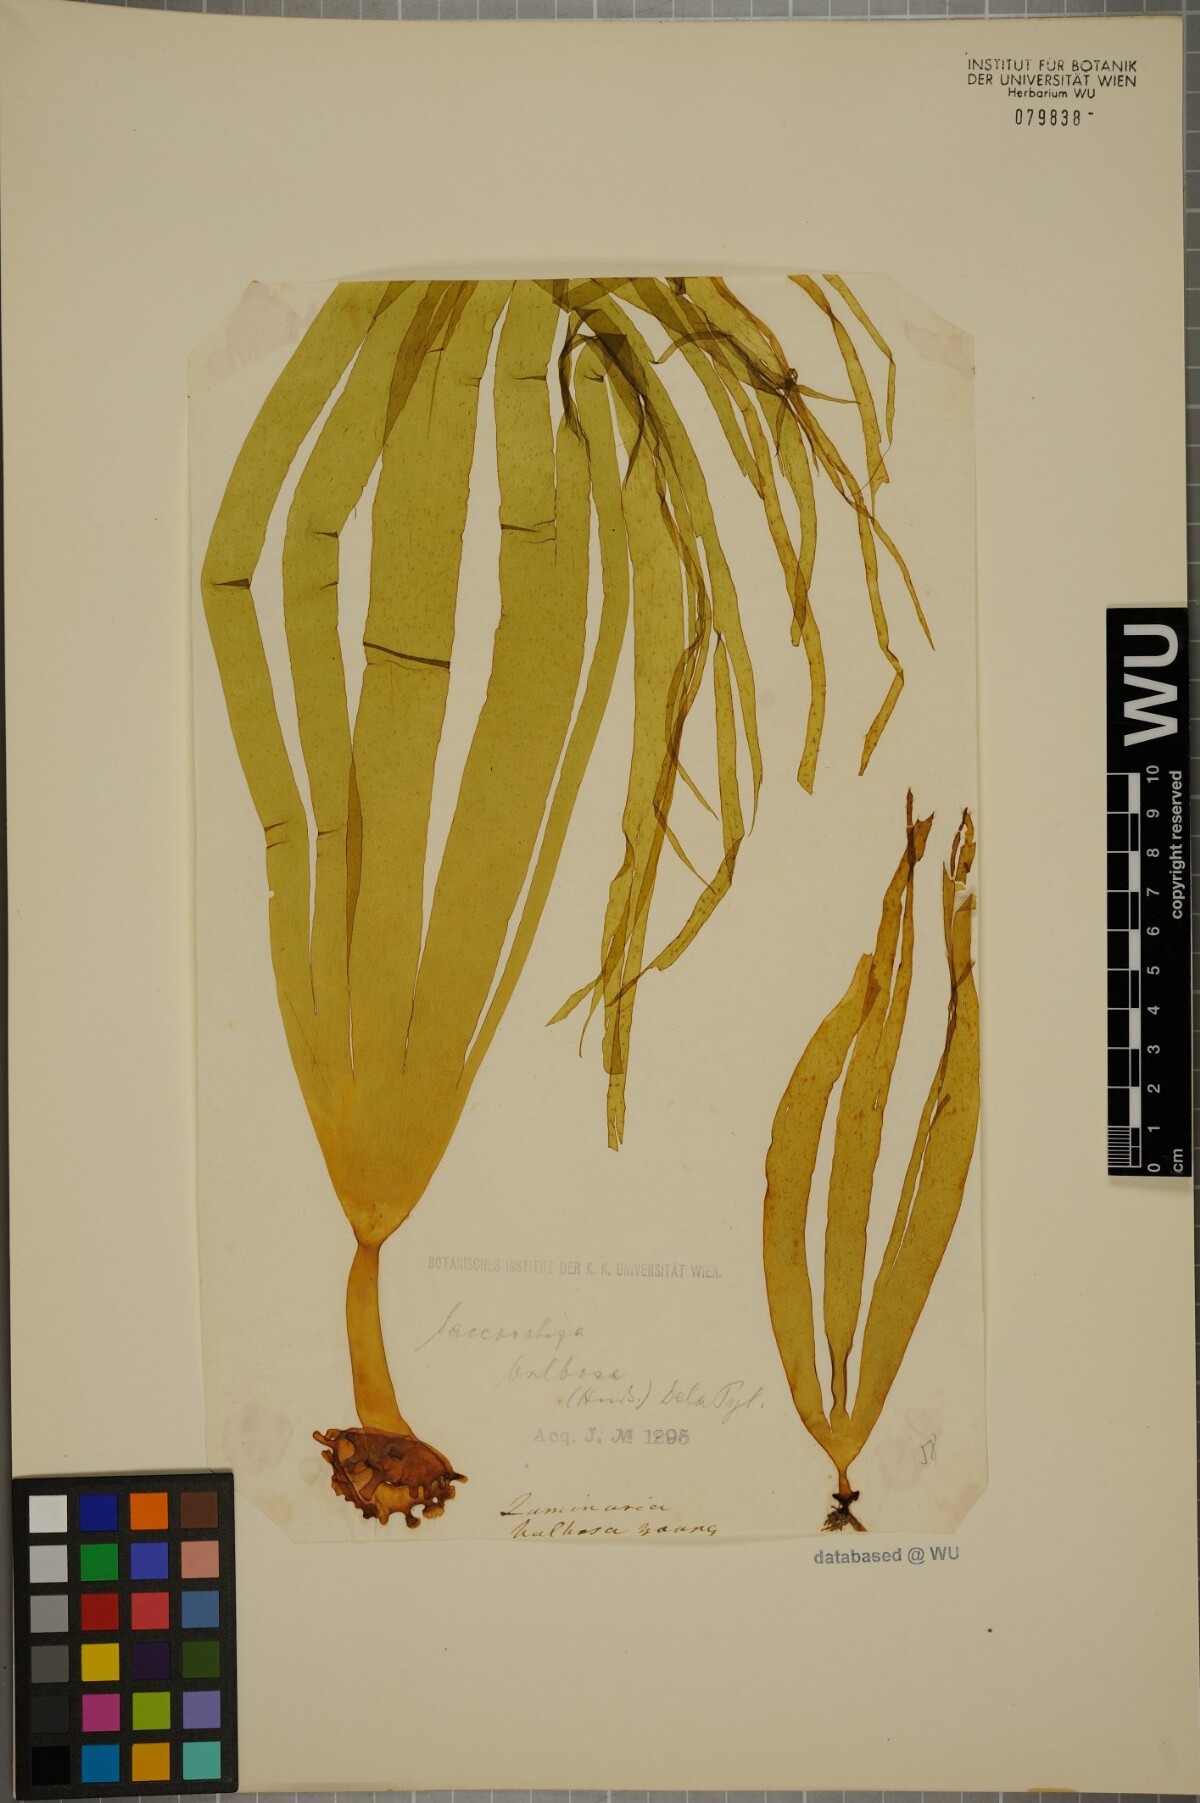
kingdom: Chromista
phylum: Ochrophyta
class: Phaeophyceae
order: Tilopteridales
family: Phyllariaceae
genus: Saccorhiza
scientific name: Saccorhiza polyschides
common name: Furbelows
